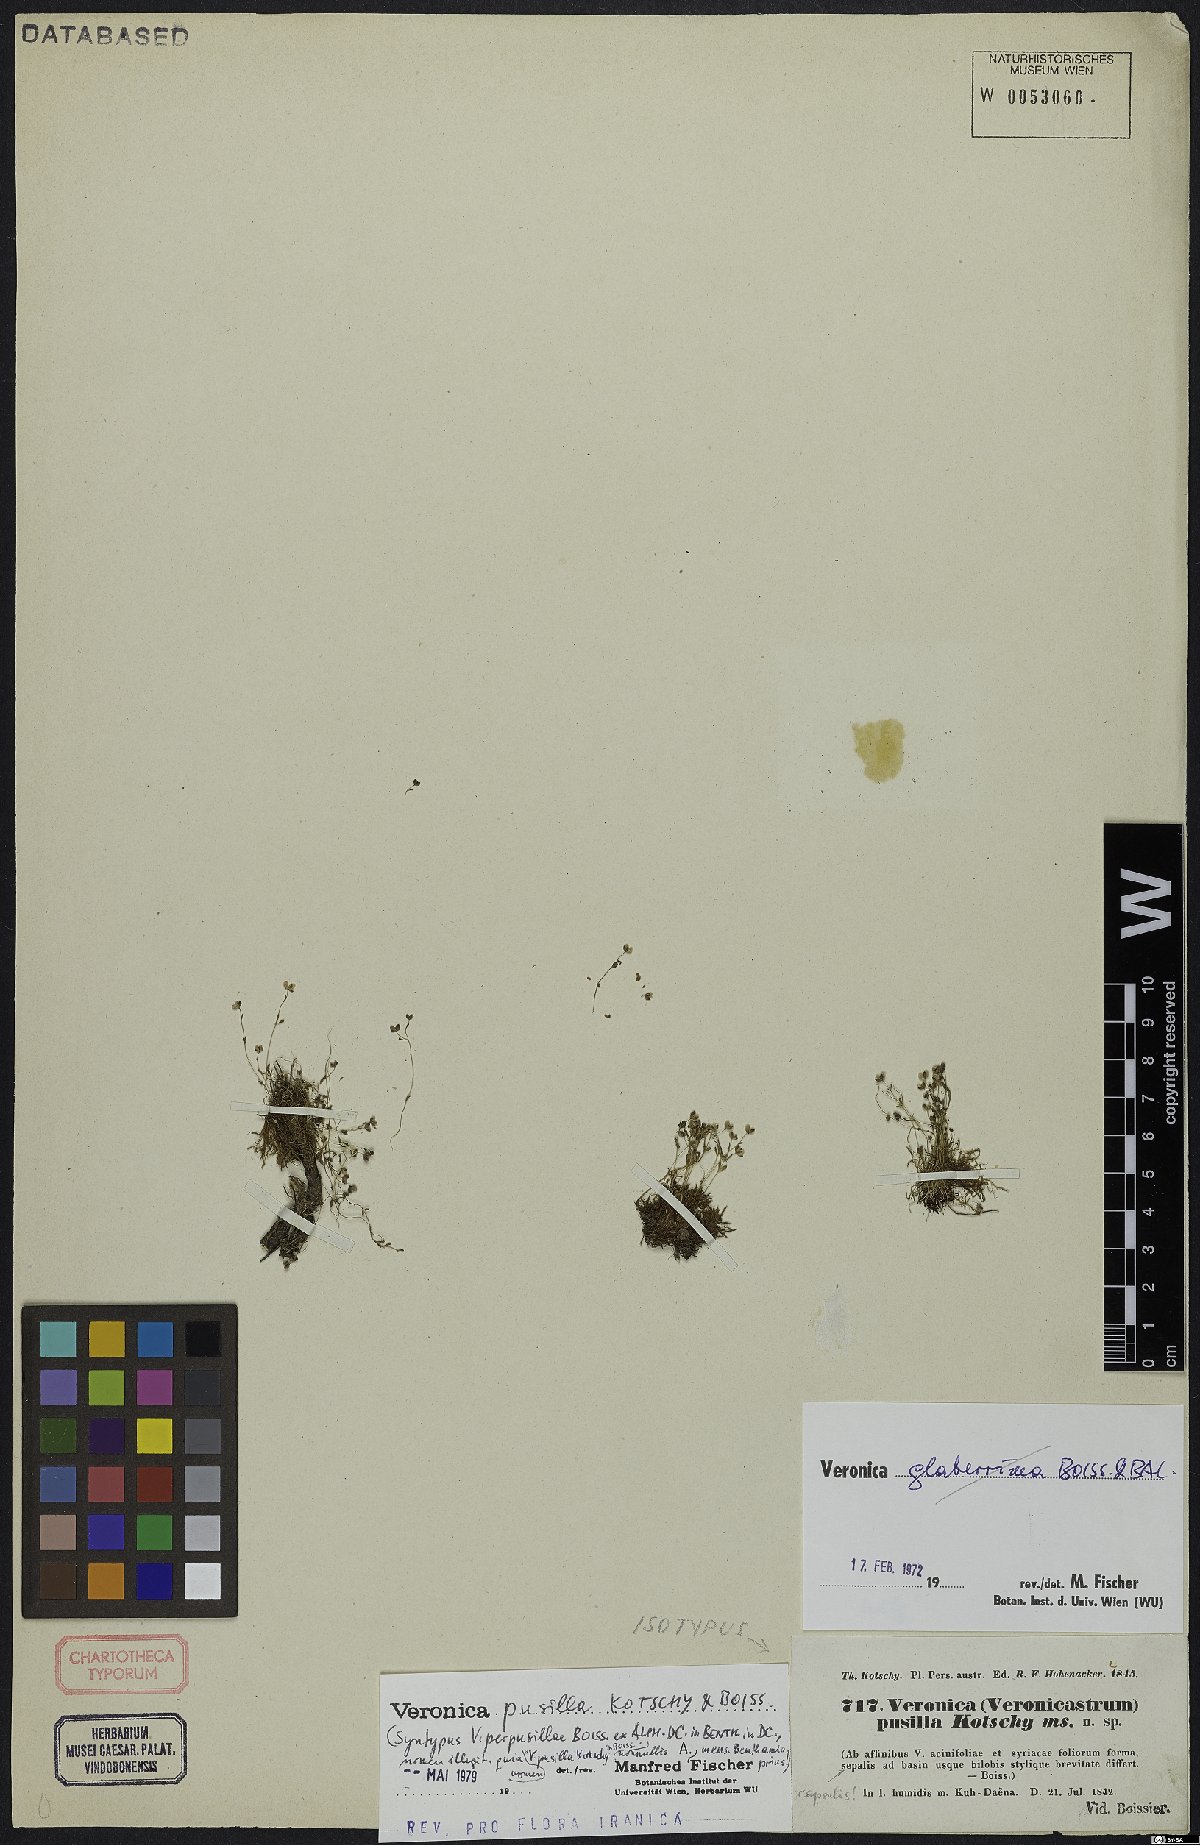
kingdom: Plantae
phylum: Tracheophyta
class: Magnoliopsida
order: Lamiales
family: Plantaginaceae
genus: Veronica
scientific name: Veronica pusilla
